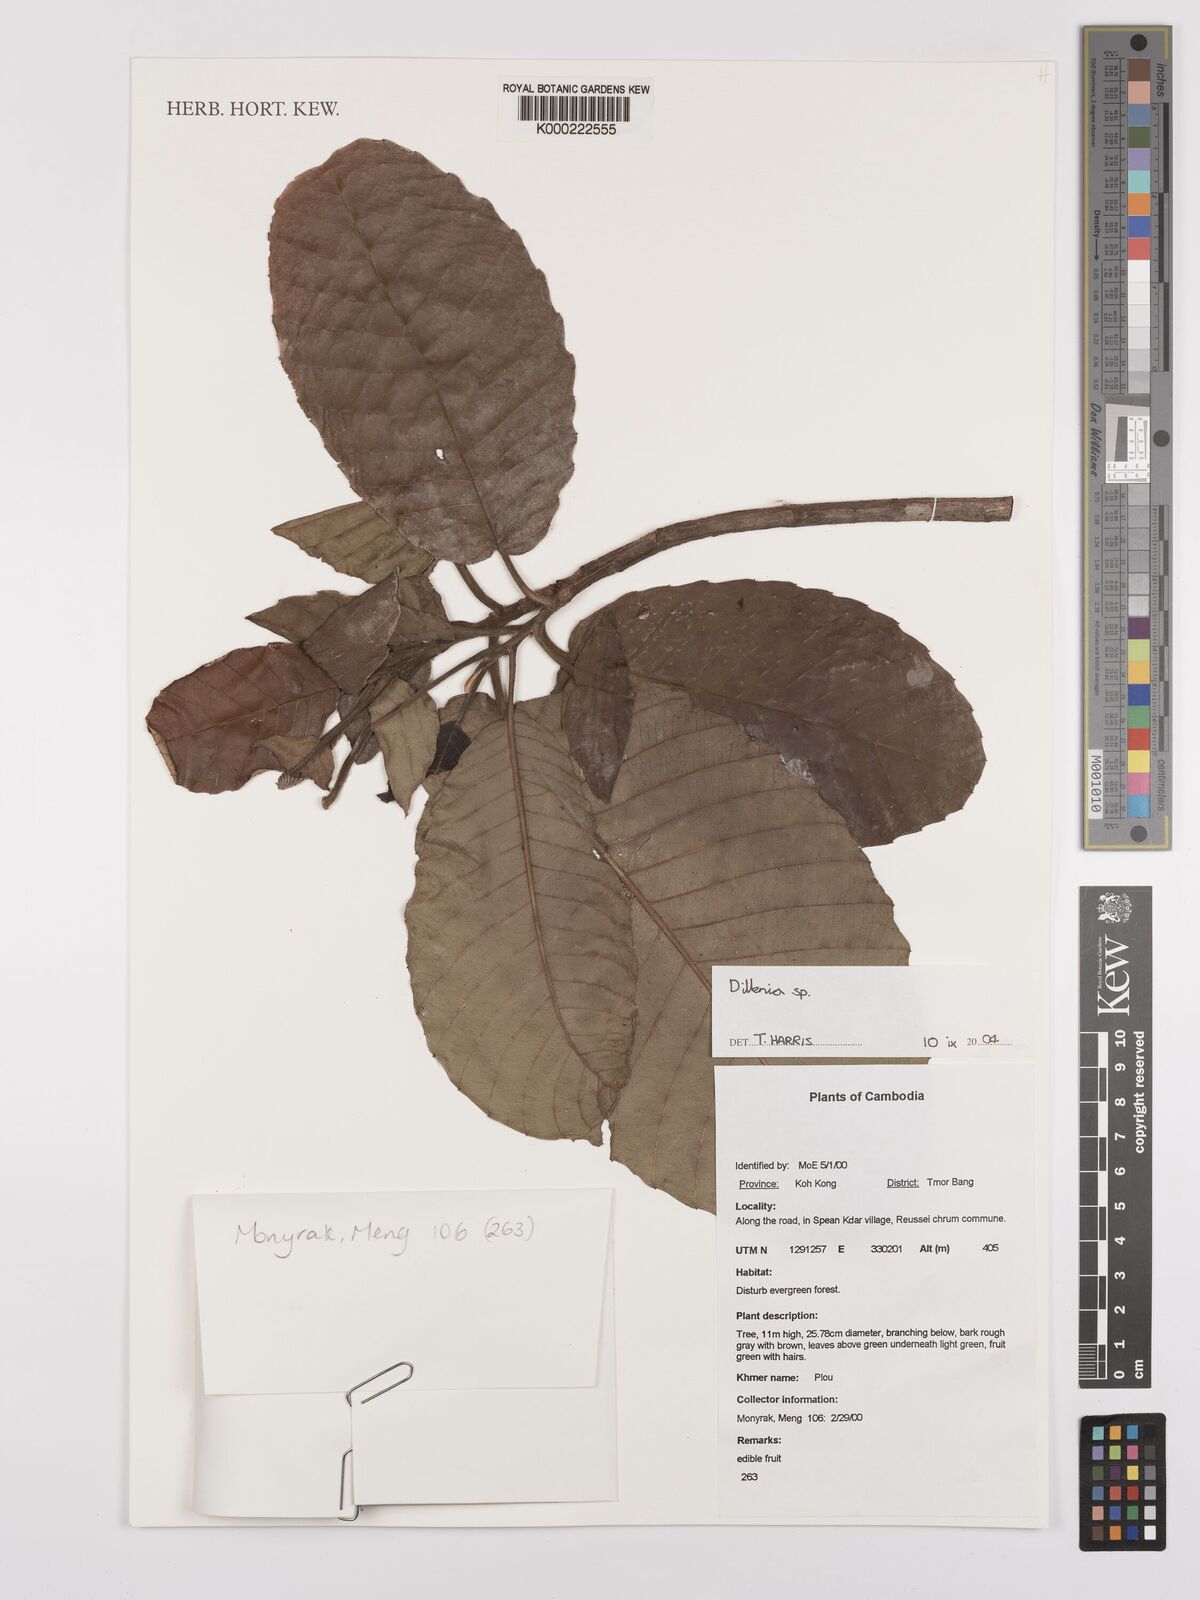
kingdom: Plantae
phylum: Tracheophyta
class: Magnoliopsida
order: Dilleniales
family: Dilleniaceae
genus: Dillenia
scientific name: Dillenia
